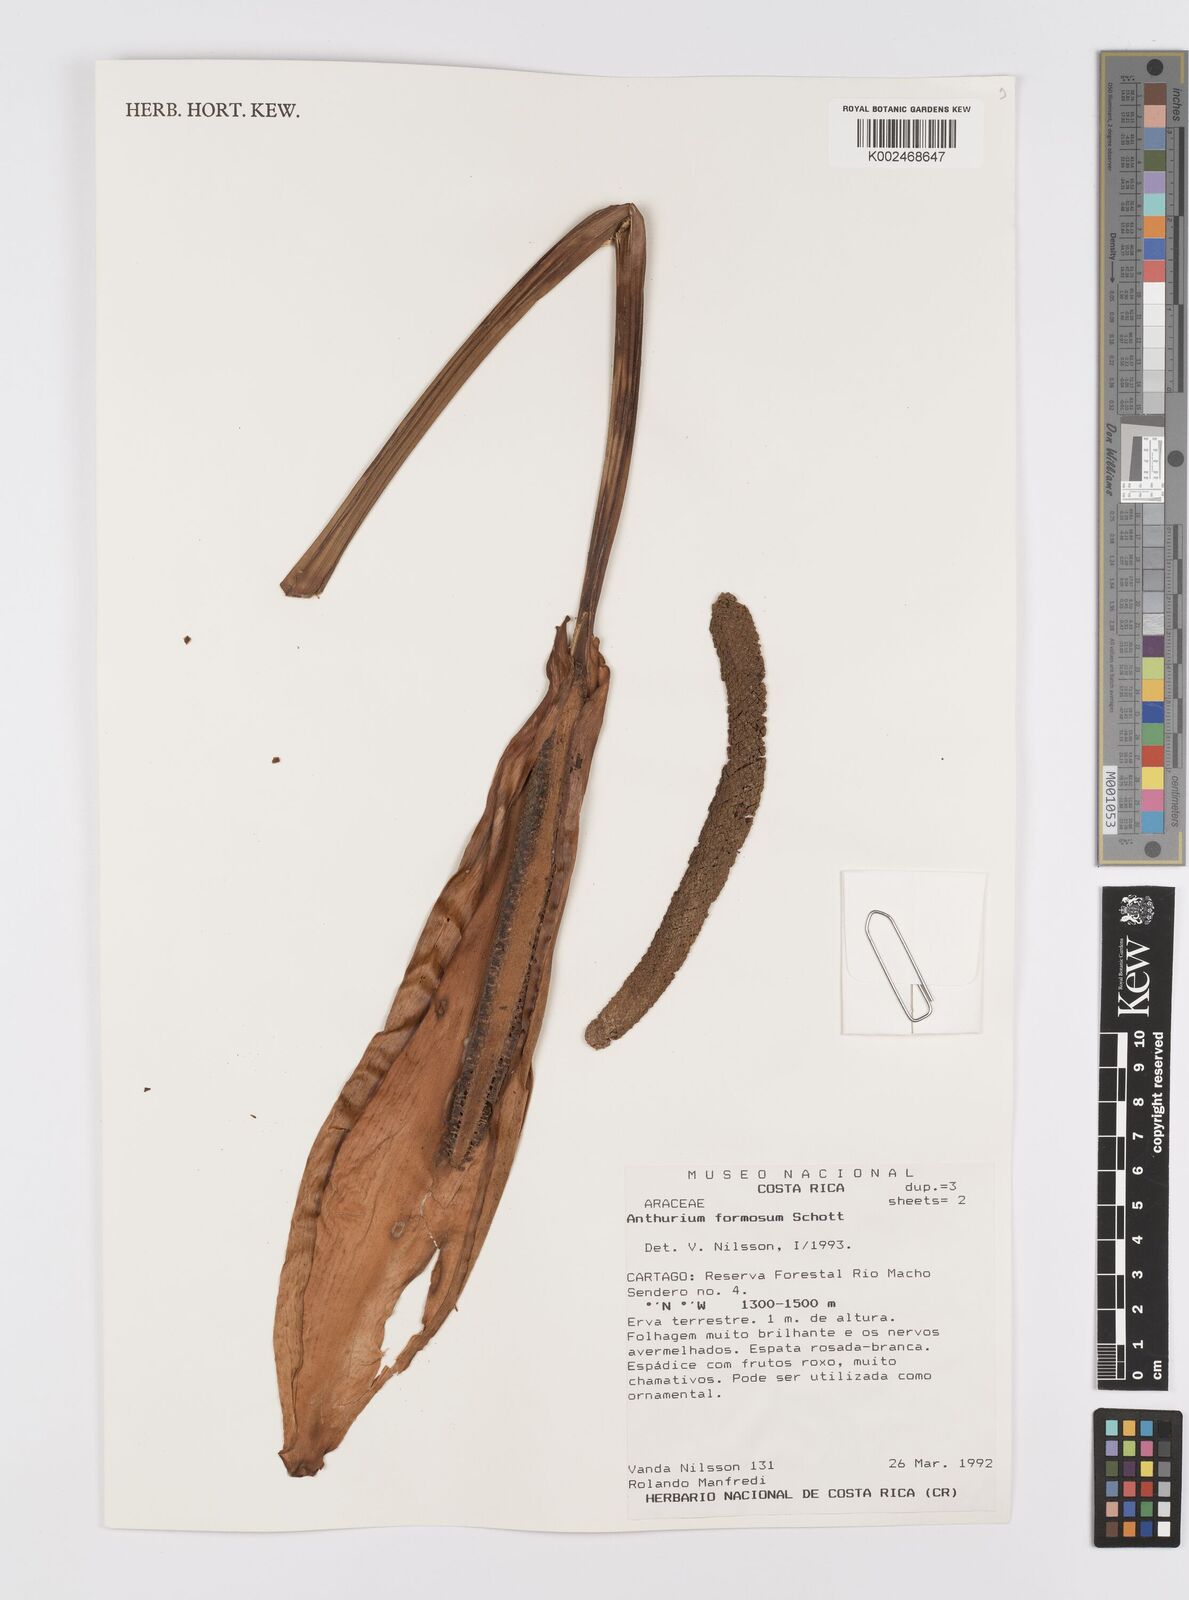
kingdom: Plantae
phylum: Tracheophyta
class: Liliopsida
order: Alismatales
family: Araceae
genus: Anthurium
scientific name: Anthurium formosum
